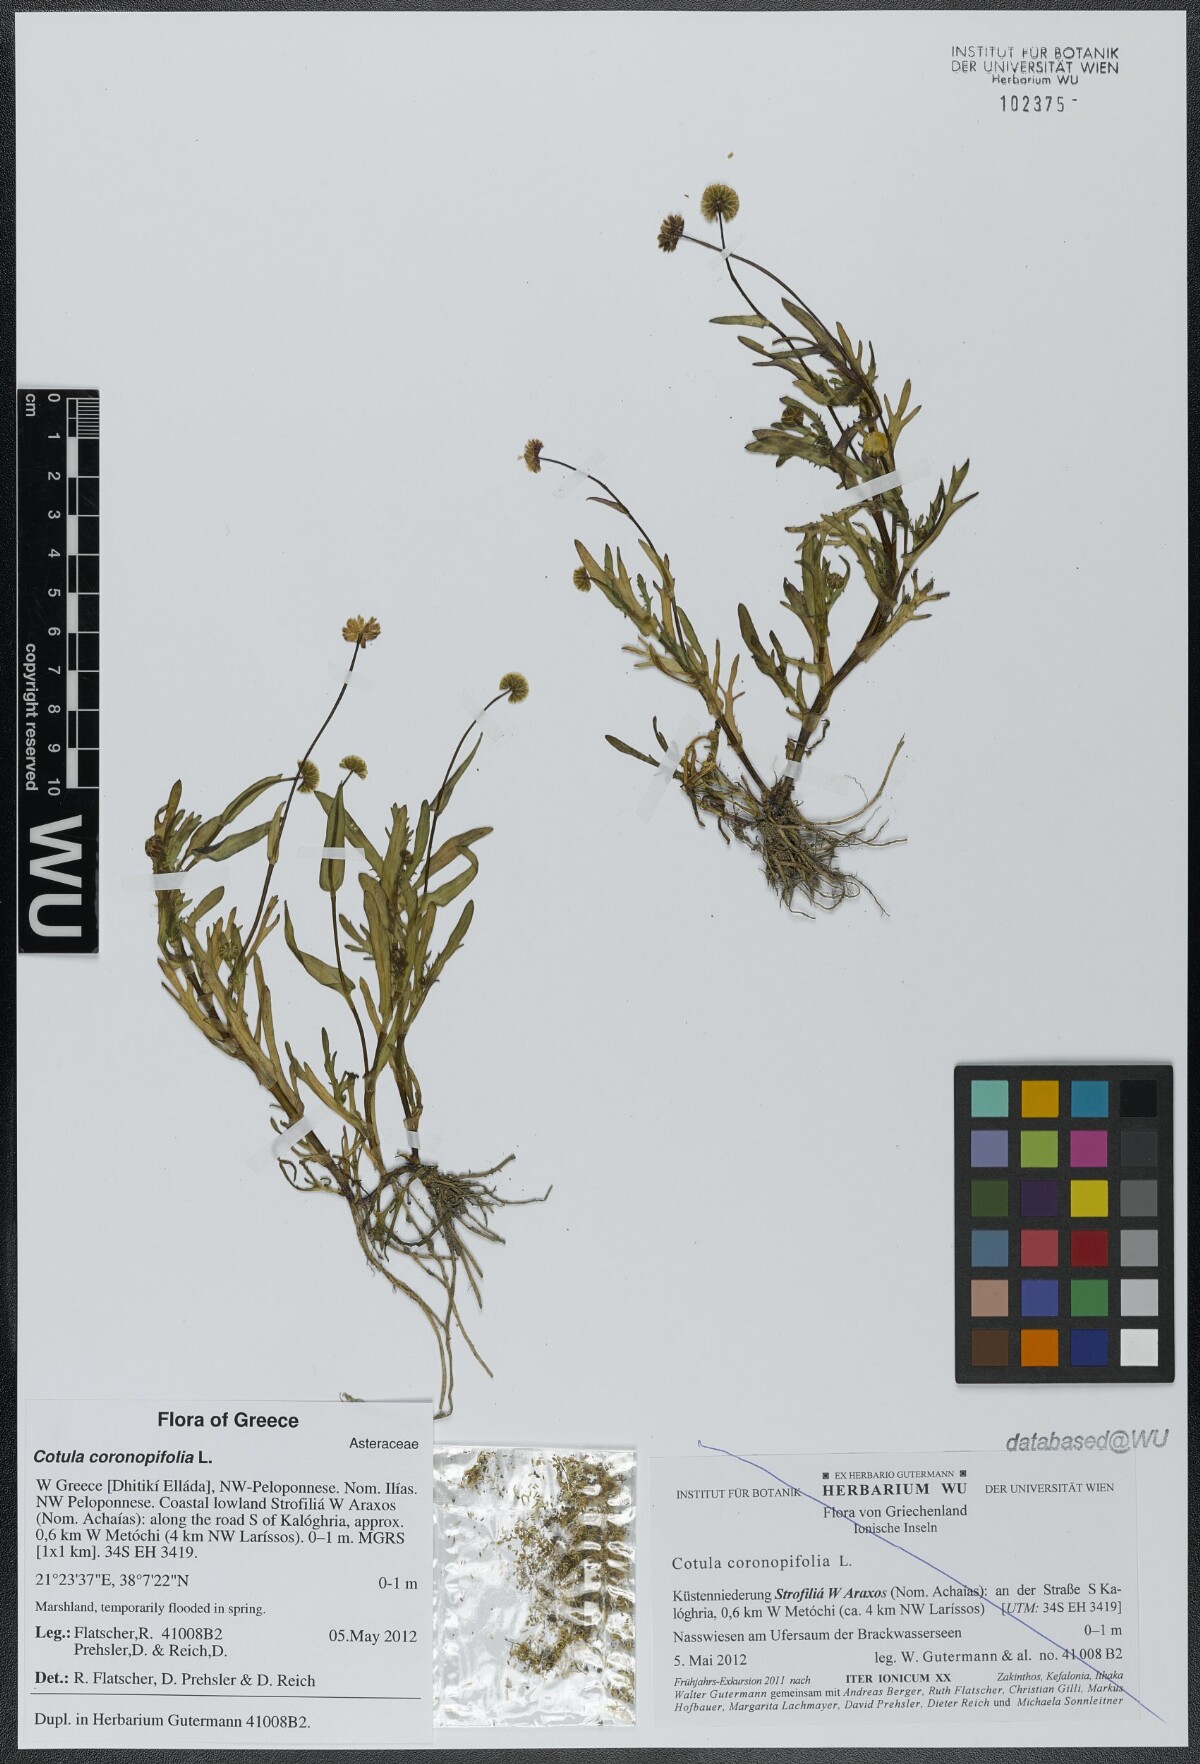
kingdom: Plantae
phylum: Tracheophyta
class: Magnoliopsida
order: Asterales
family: Asteraceae
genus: Cotula
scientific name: Cotula coronopifolia
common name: Buttonweed
